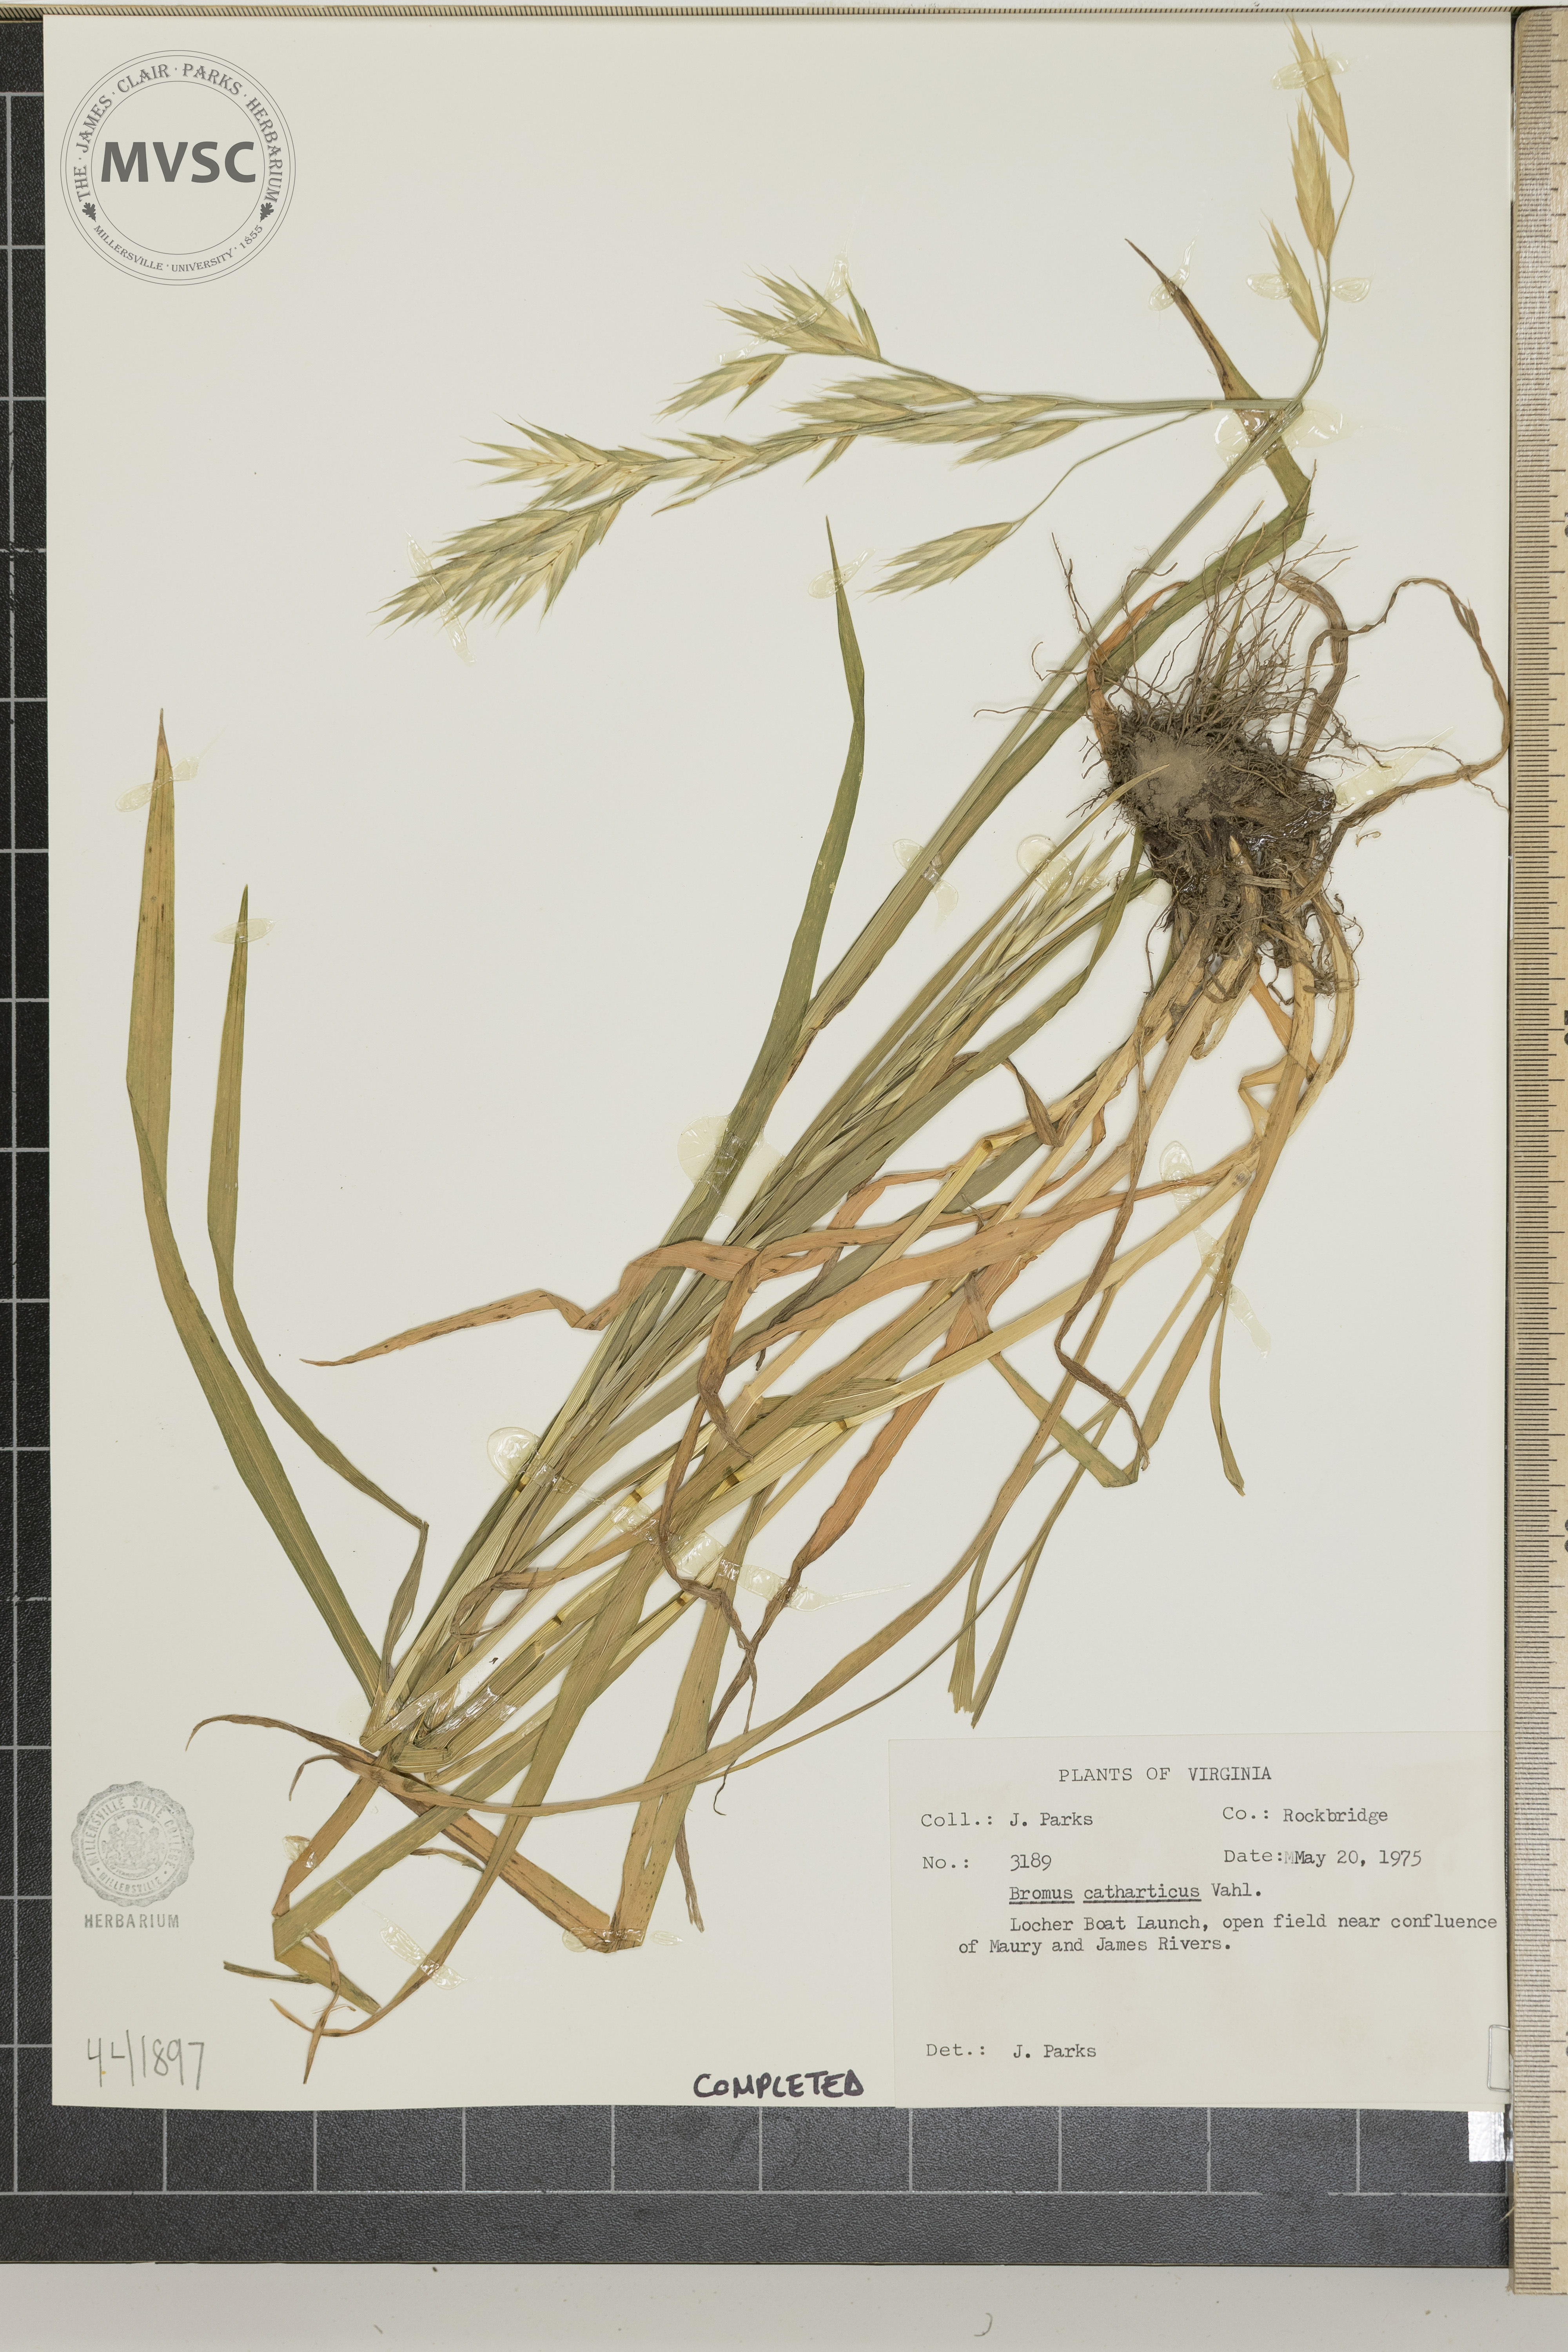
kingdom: Plantae
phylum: Tracheophyta
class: Liliopsida
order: Poales
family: Poaceae
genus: Bromus
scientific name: Bromus catharticus
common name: Rescuegrass
